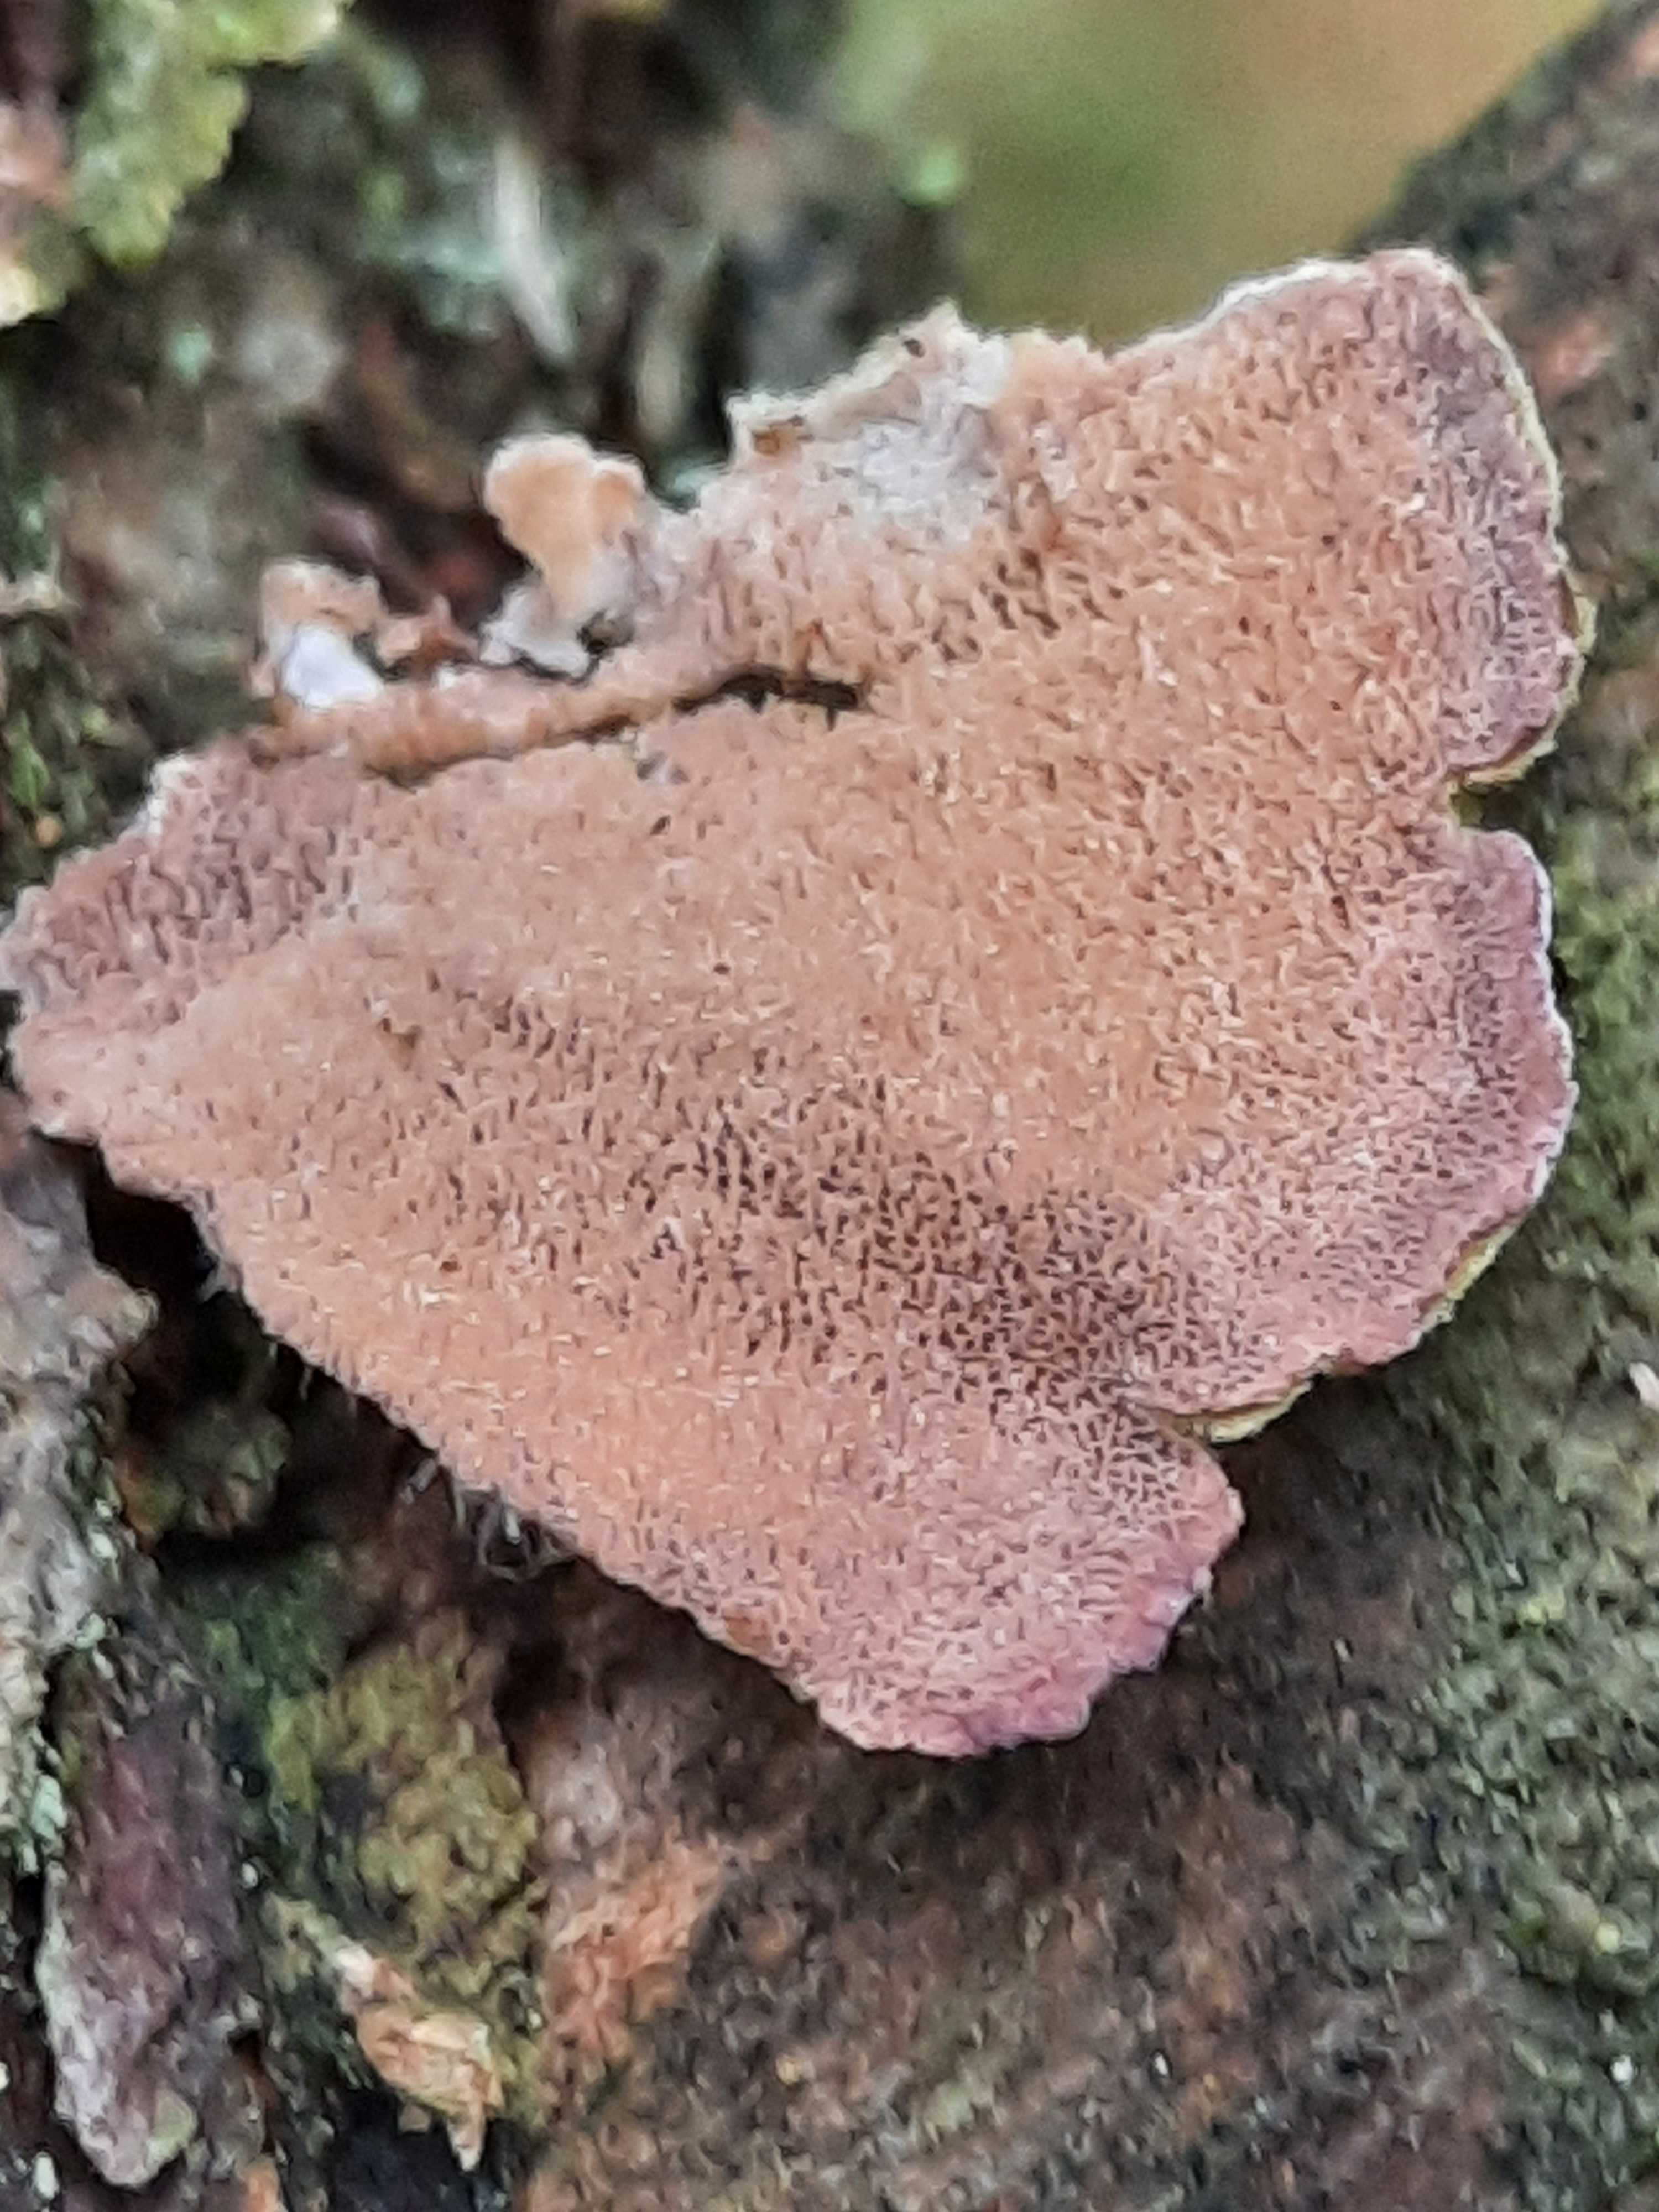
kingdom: Fungi
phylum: Basidiomycota
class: Agaricomycetes
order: Hymenochaetales
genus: Trichaptum
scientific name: Trichaptum abietinum
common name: almindelig violporesvamp
